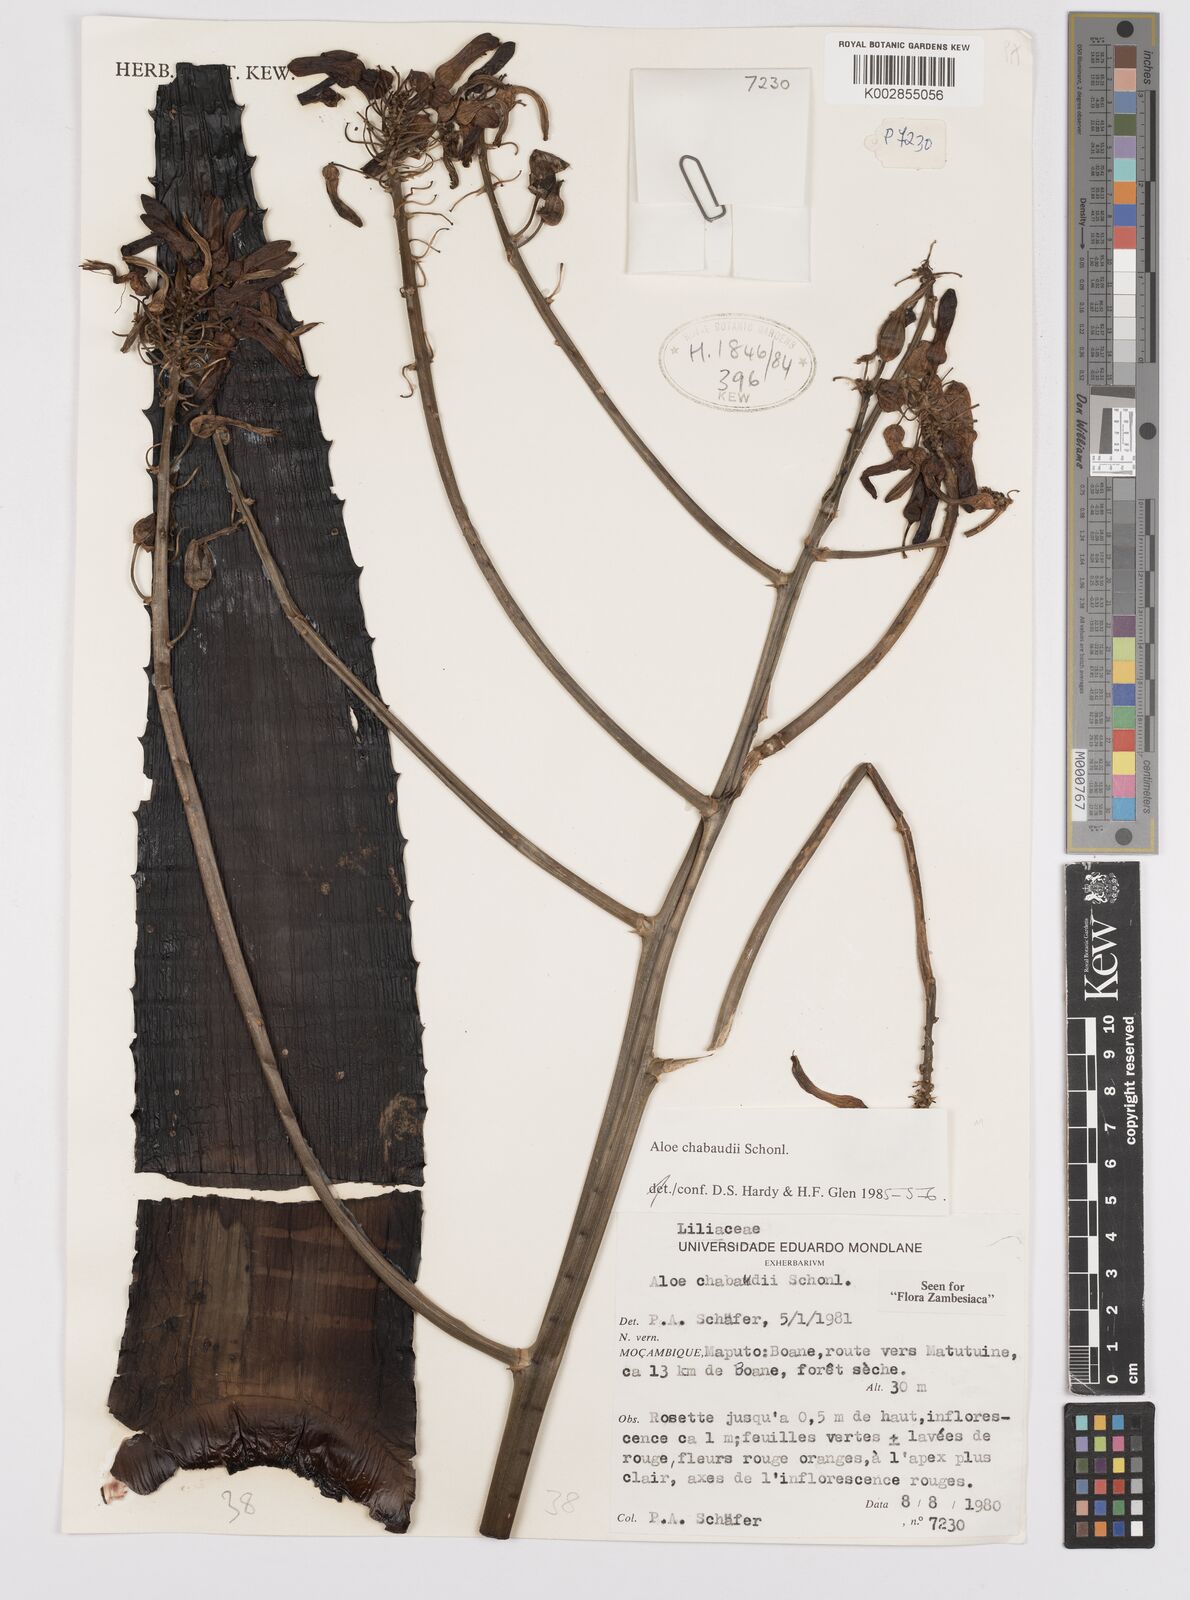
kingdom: Plantae
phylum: Tracheophyta
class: Liliopsida
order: Asparagales
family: Asphodelaceae
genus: Aloe
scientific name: Aloe chabaudii
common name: Chabaud's aloe
